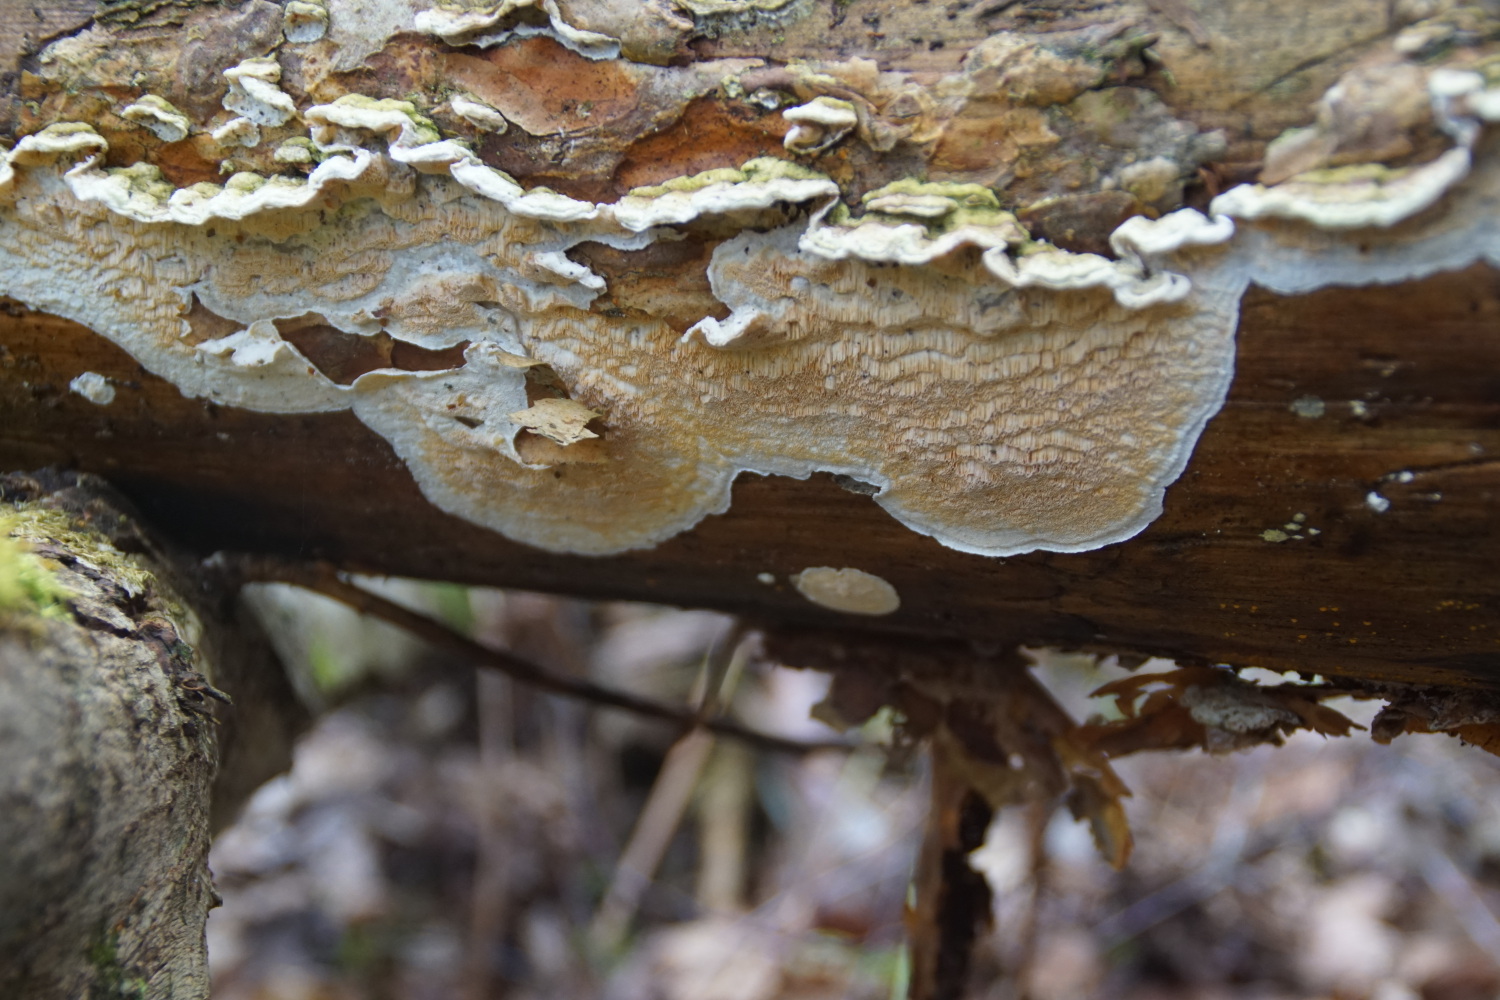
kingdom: Fungi
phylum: Basidiomycota
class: Agaricomycetes
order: Polyporales
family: Incrustoporiaceae
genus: Skeletocutis
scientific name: Skeletocutis amorpha
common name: orange krystalporesvamp
